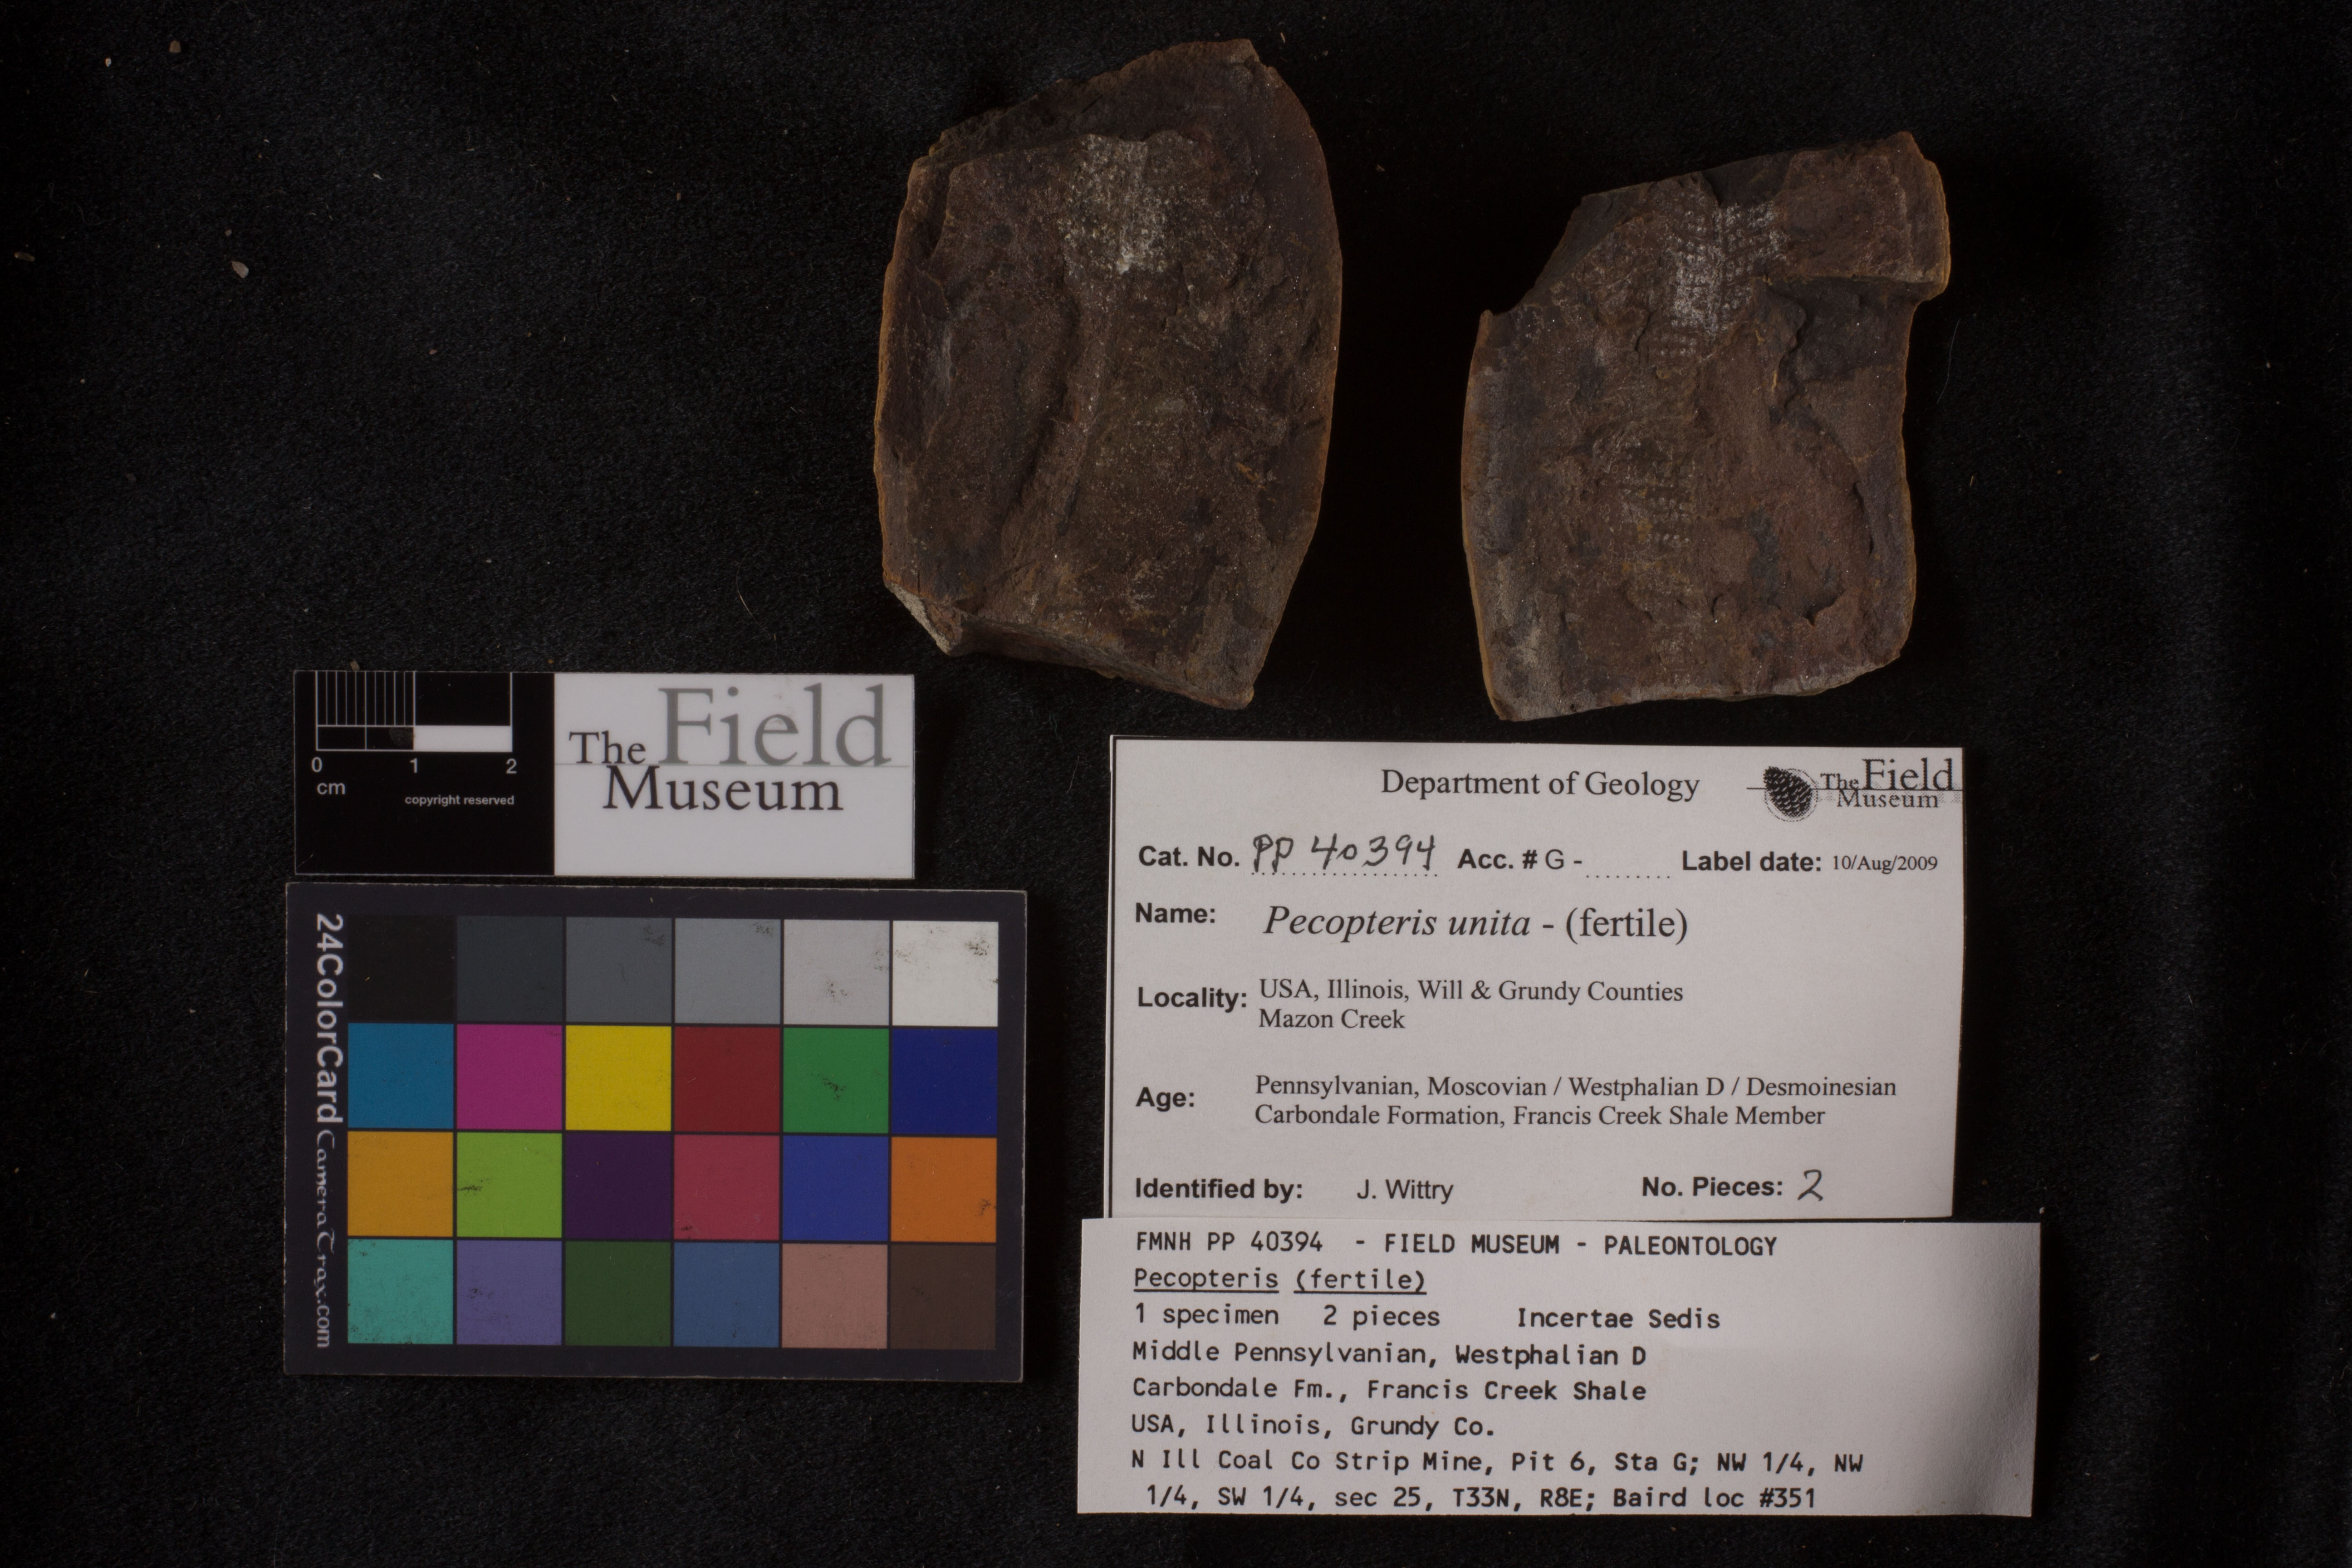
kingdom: Plantae
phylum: Tracheophyta
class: Polypodiopsida
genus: Diplazites
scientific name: Diplazites
